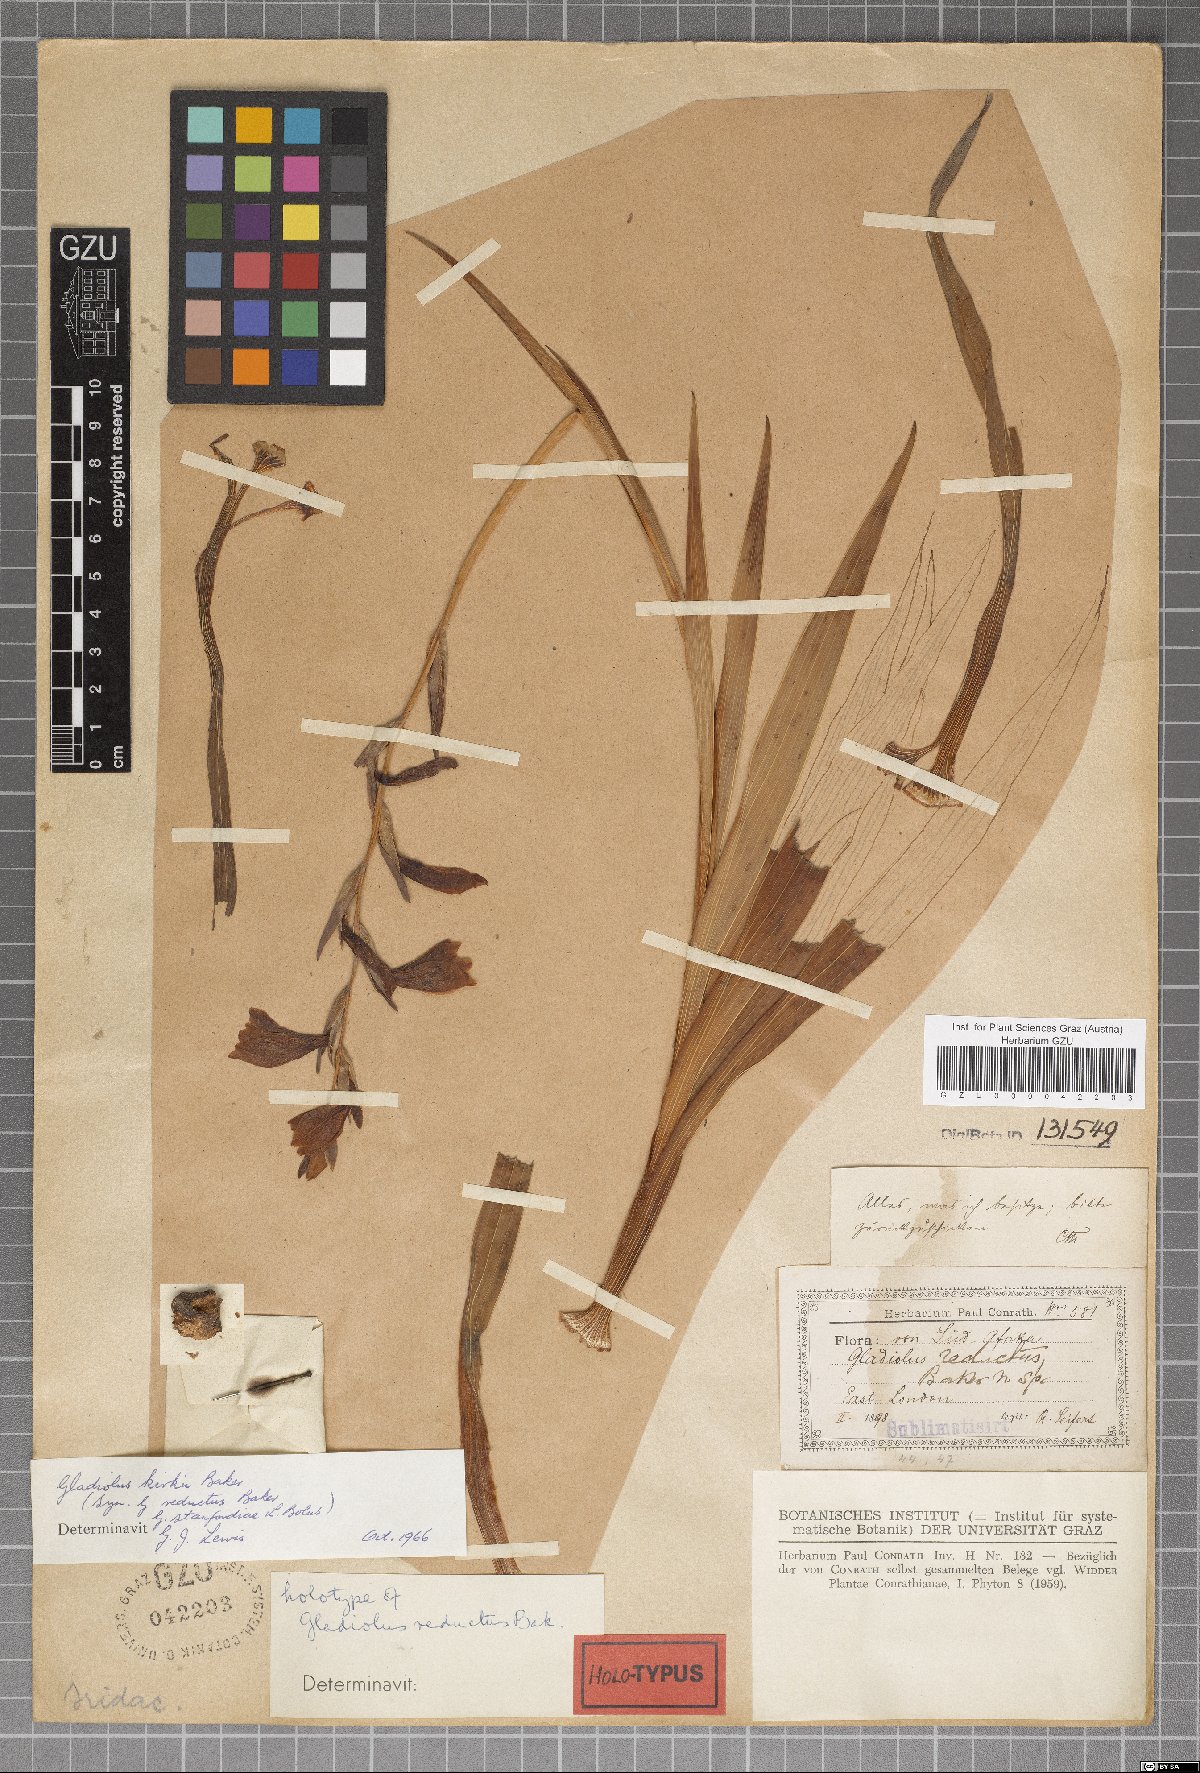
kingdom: Plantae
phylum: Tracheophyta
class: Liliopsida
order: Asparagales
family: Iridaceae
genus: Gladiolus
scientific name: Gladiolus ochroleucus
